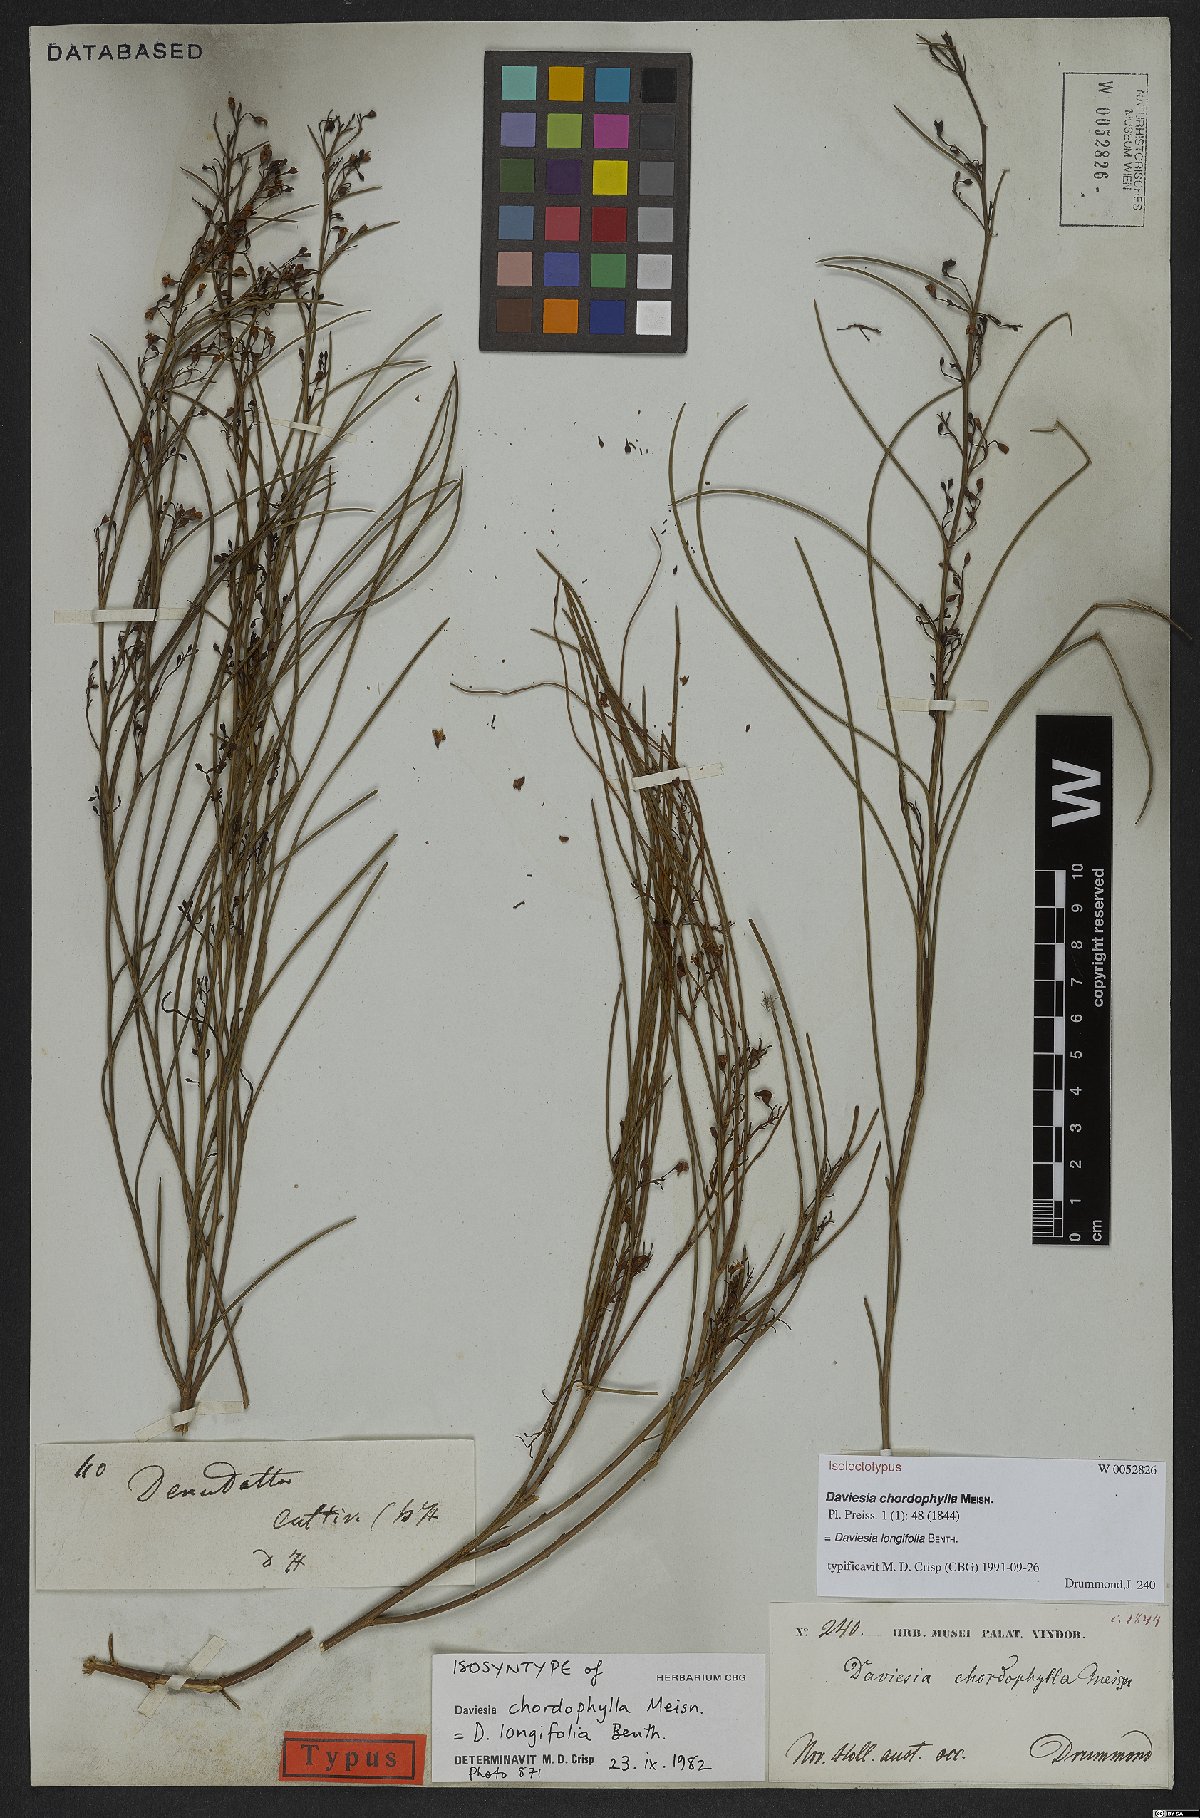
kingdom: Plantae
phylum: Tracheophyta
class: Magnoliopsida
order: Fabales
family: Fabaceae
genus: Daviesia
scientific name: Daviesia longifolia
